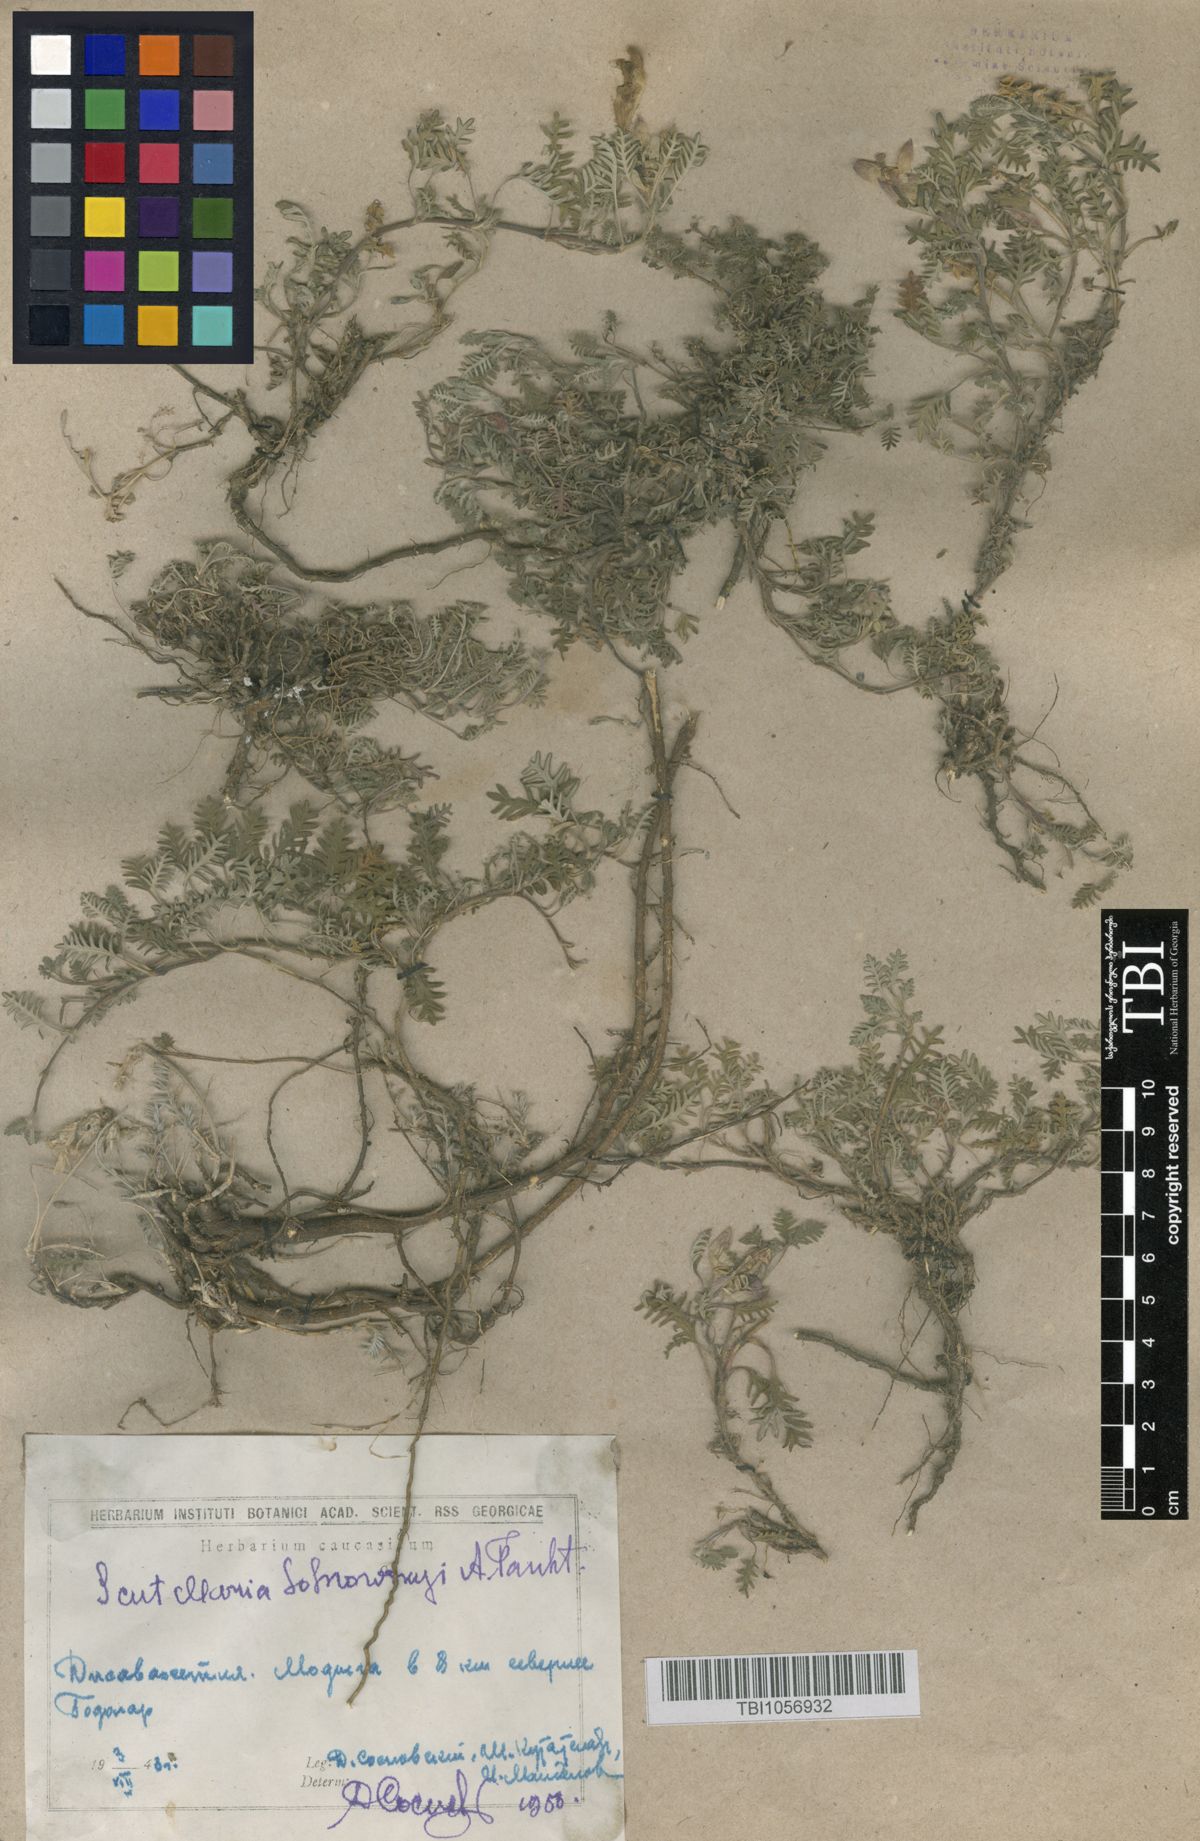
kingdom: Plantae
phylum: Tracheophyta
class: Magnoliopsida
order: Lamiales
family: Lamiaceae
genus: Scutellaria
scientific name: Scutellaria sosnowskyi
